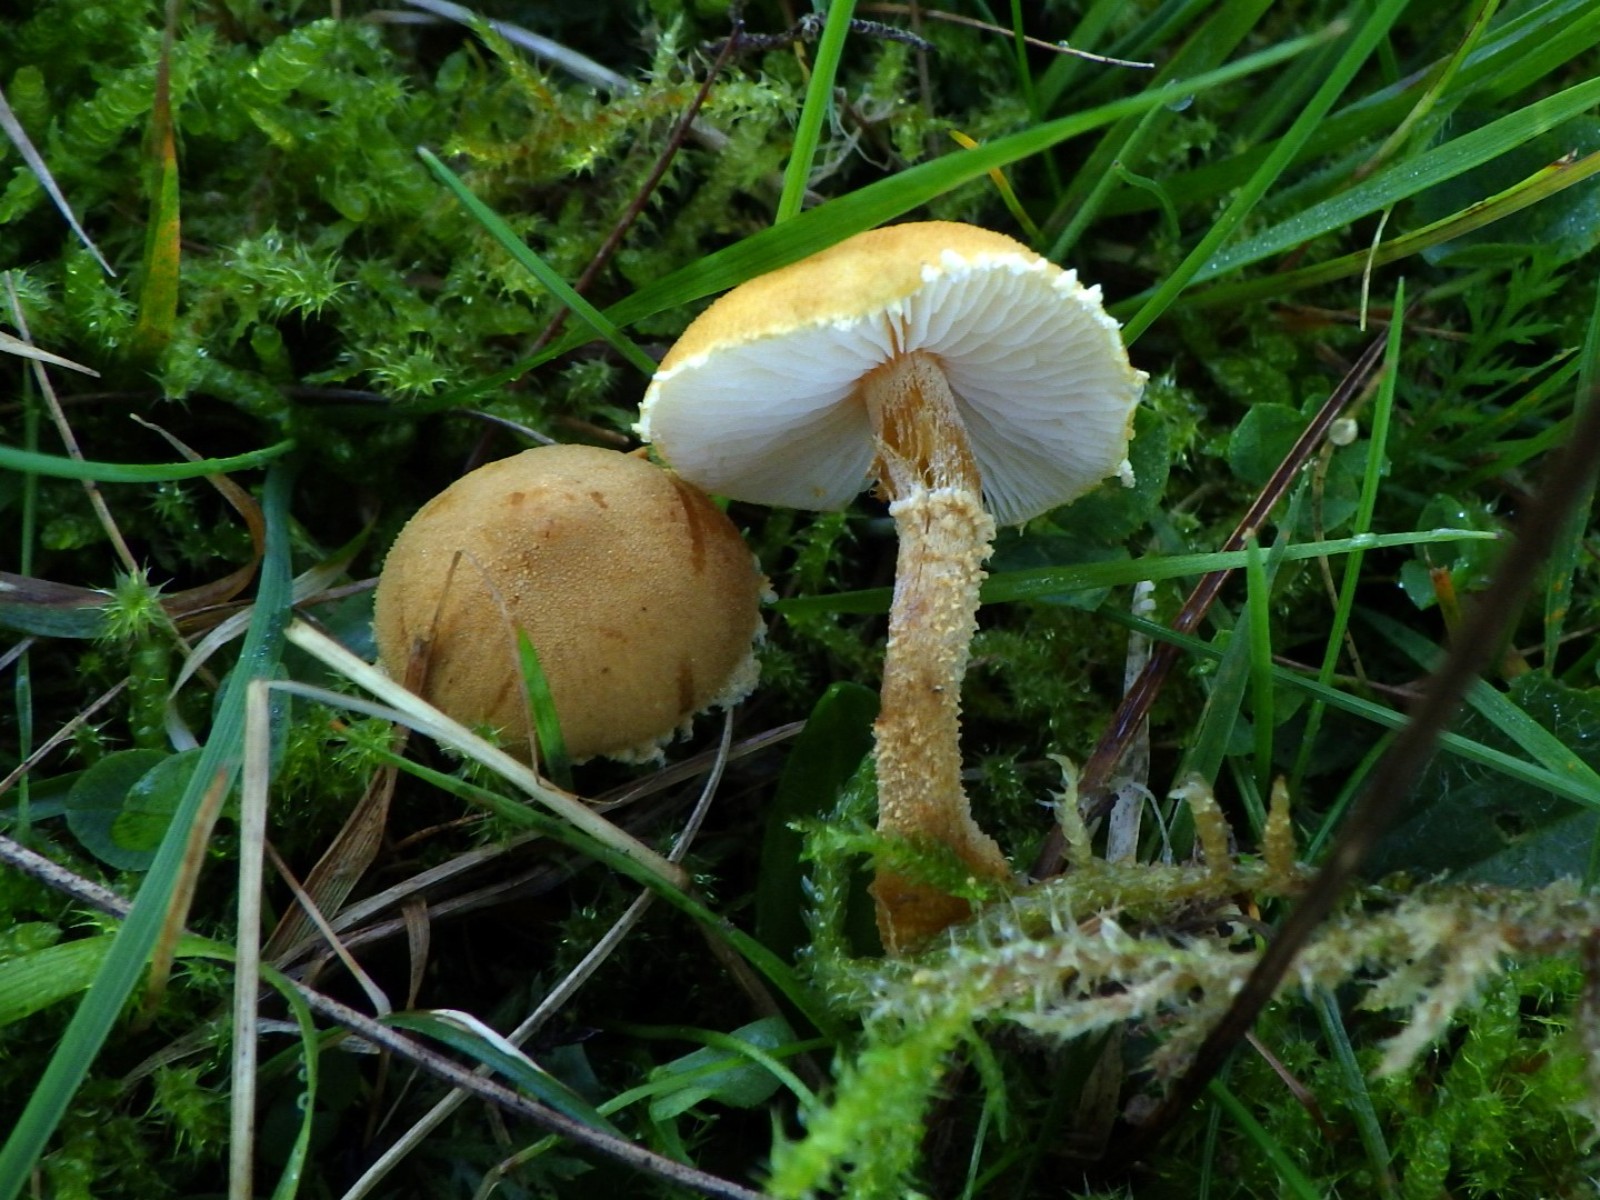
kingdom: Fungi
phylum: Basidiomycota
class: Agaricomycetes
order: Agaricales
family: Tricholomataceae
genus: Cystoderma
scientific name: Cystoderma amianthinum
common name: okkergul grynhat
